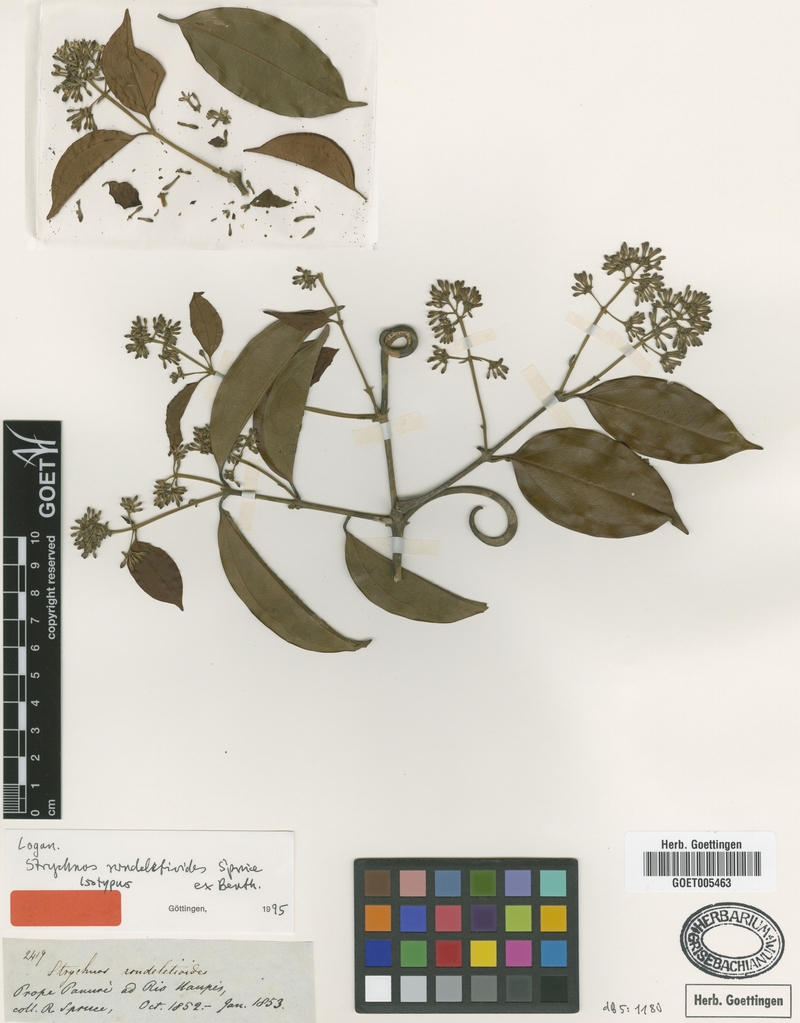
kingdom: Plantae
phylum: Tracheophyta
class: Magnoliopsida
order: Gentianales
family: Loganiaceae
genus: Strychnos
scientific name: Strychnos rondeletioides
